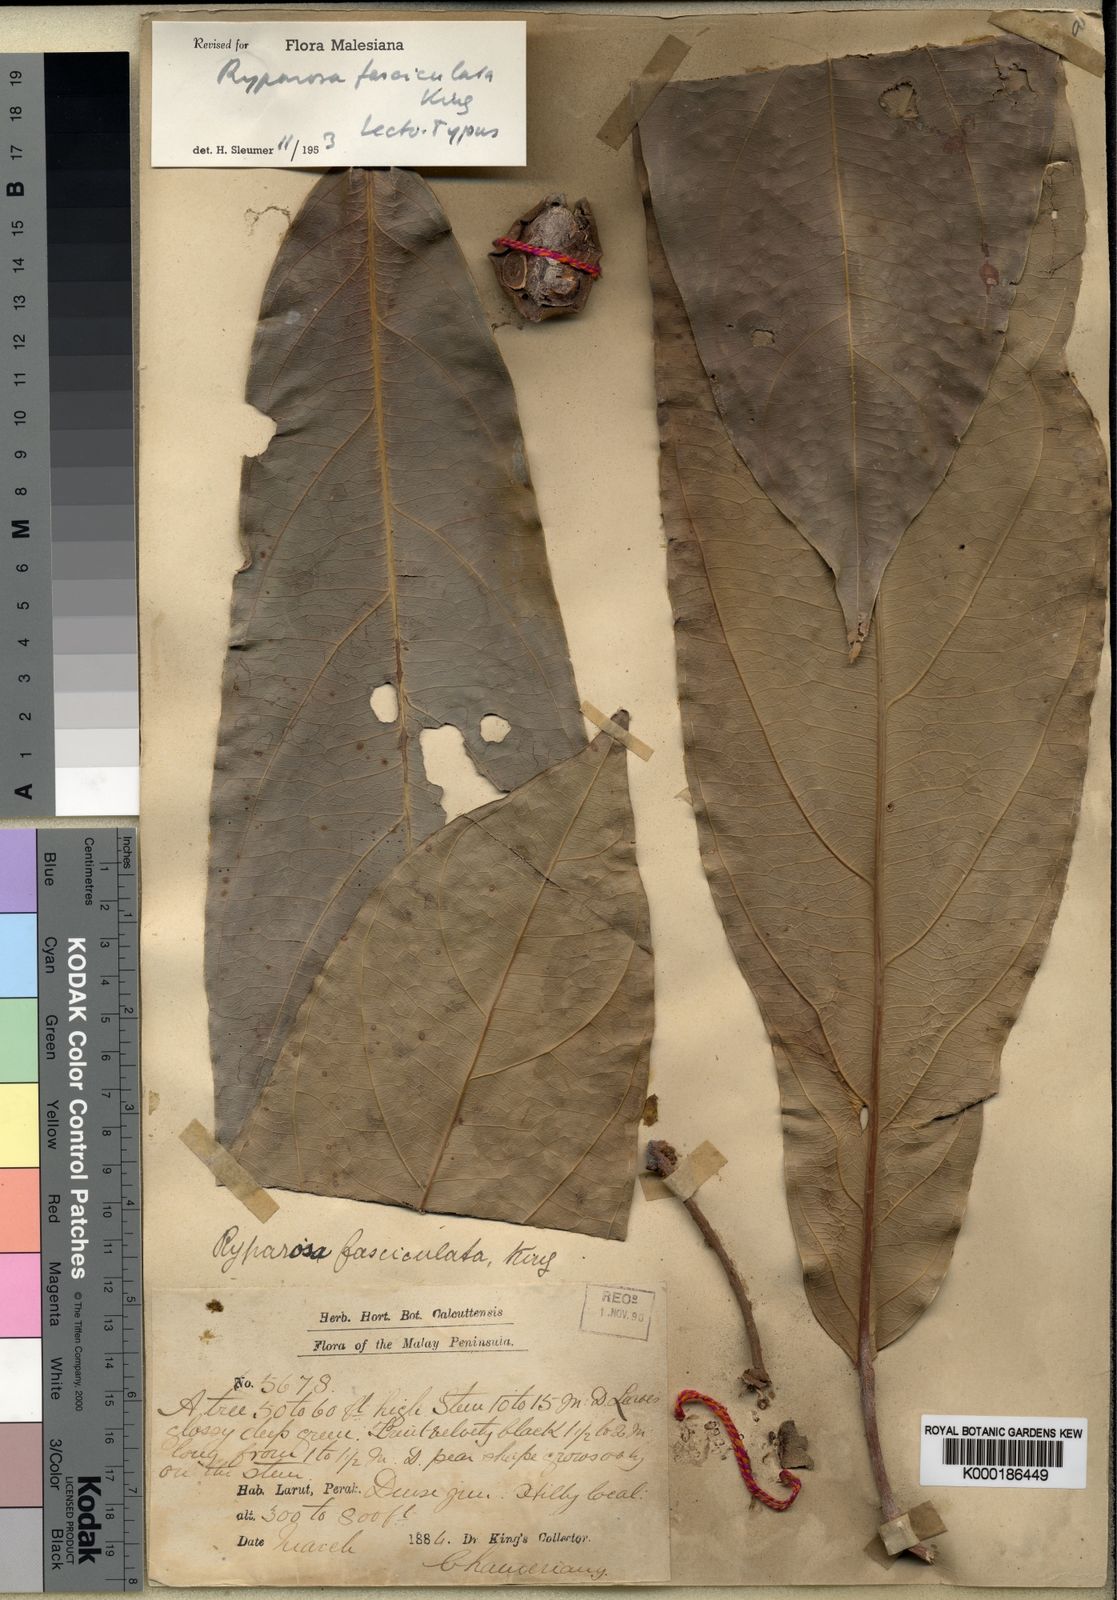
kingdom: Plantae
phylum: Tracheophyta
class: Magnoliopsida
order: Malpighiales
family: Achariaceae
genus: Ryparosa
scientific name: Ryparosa fasciculata
